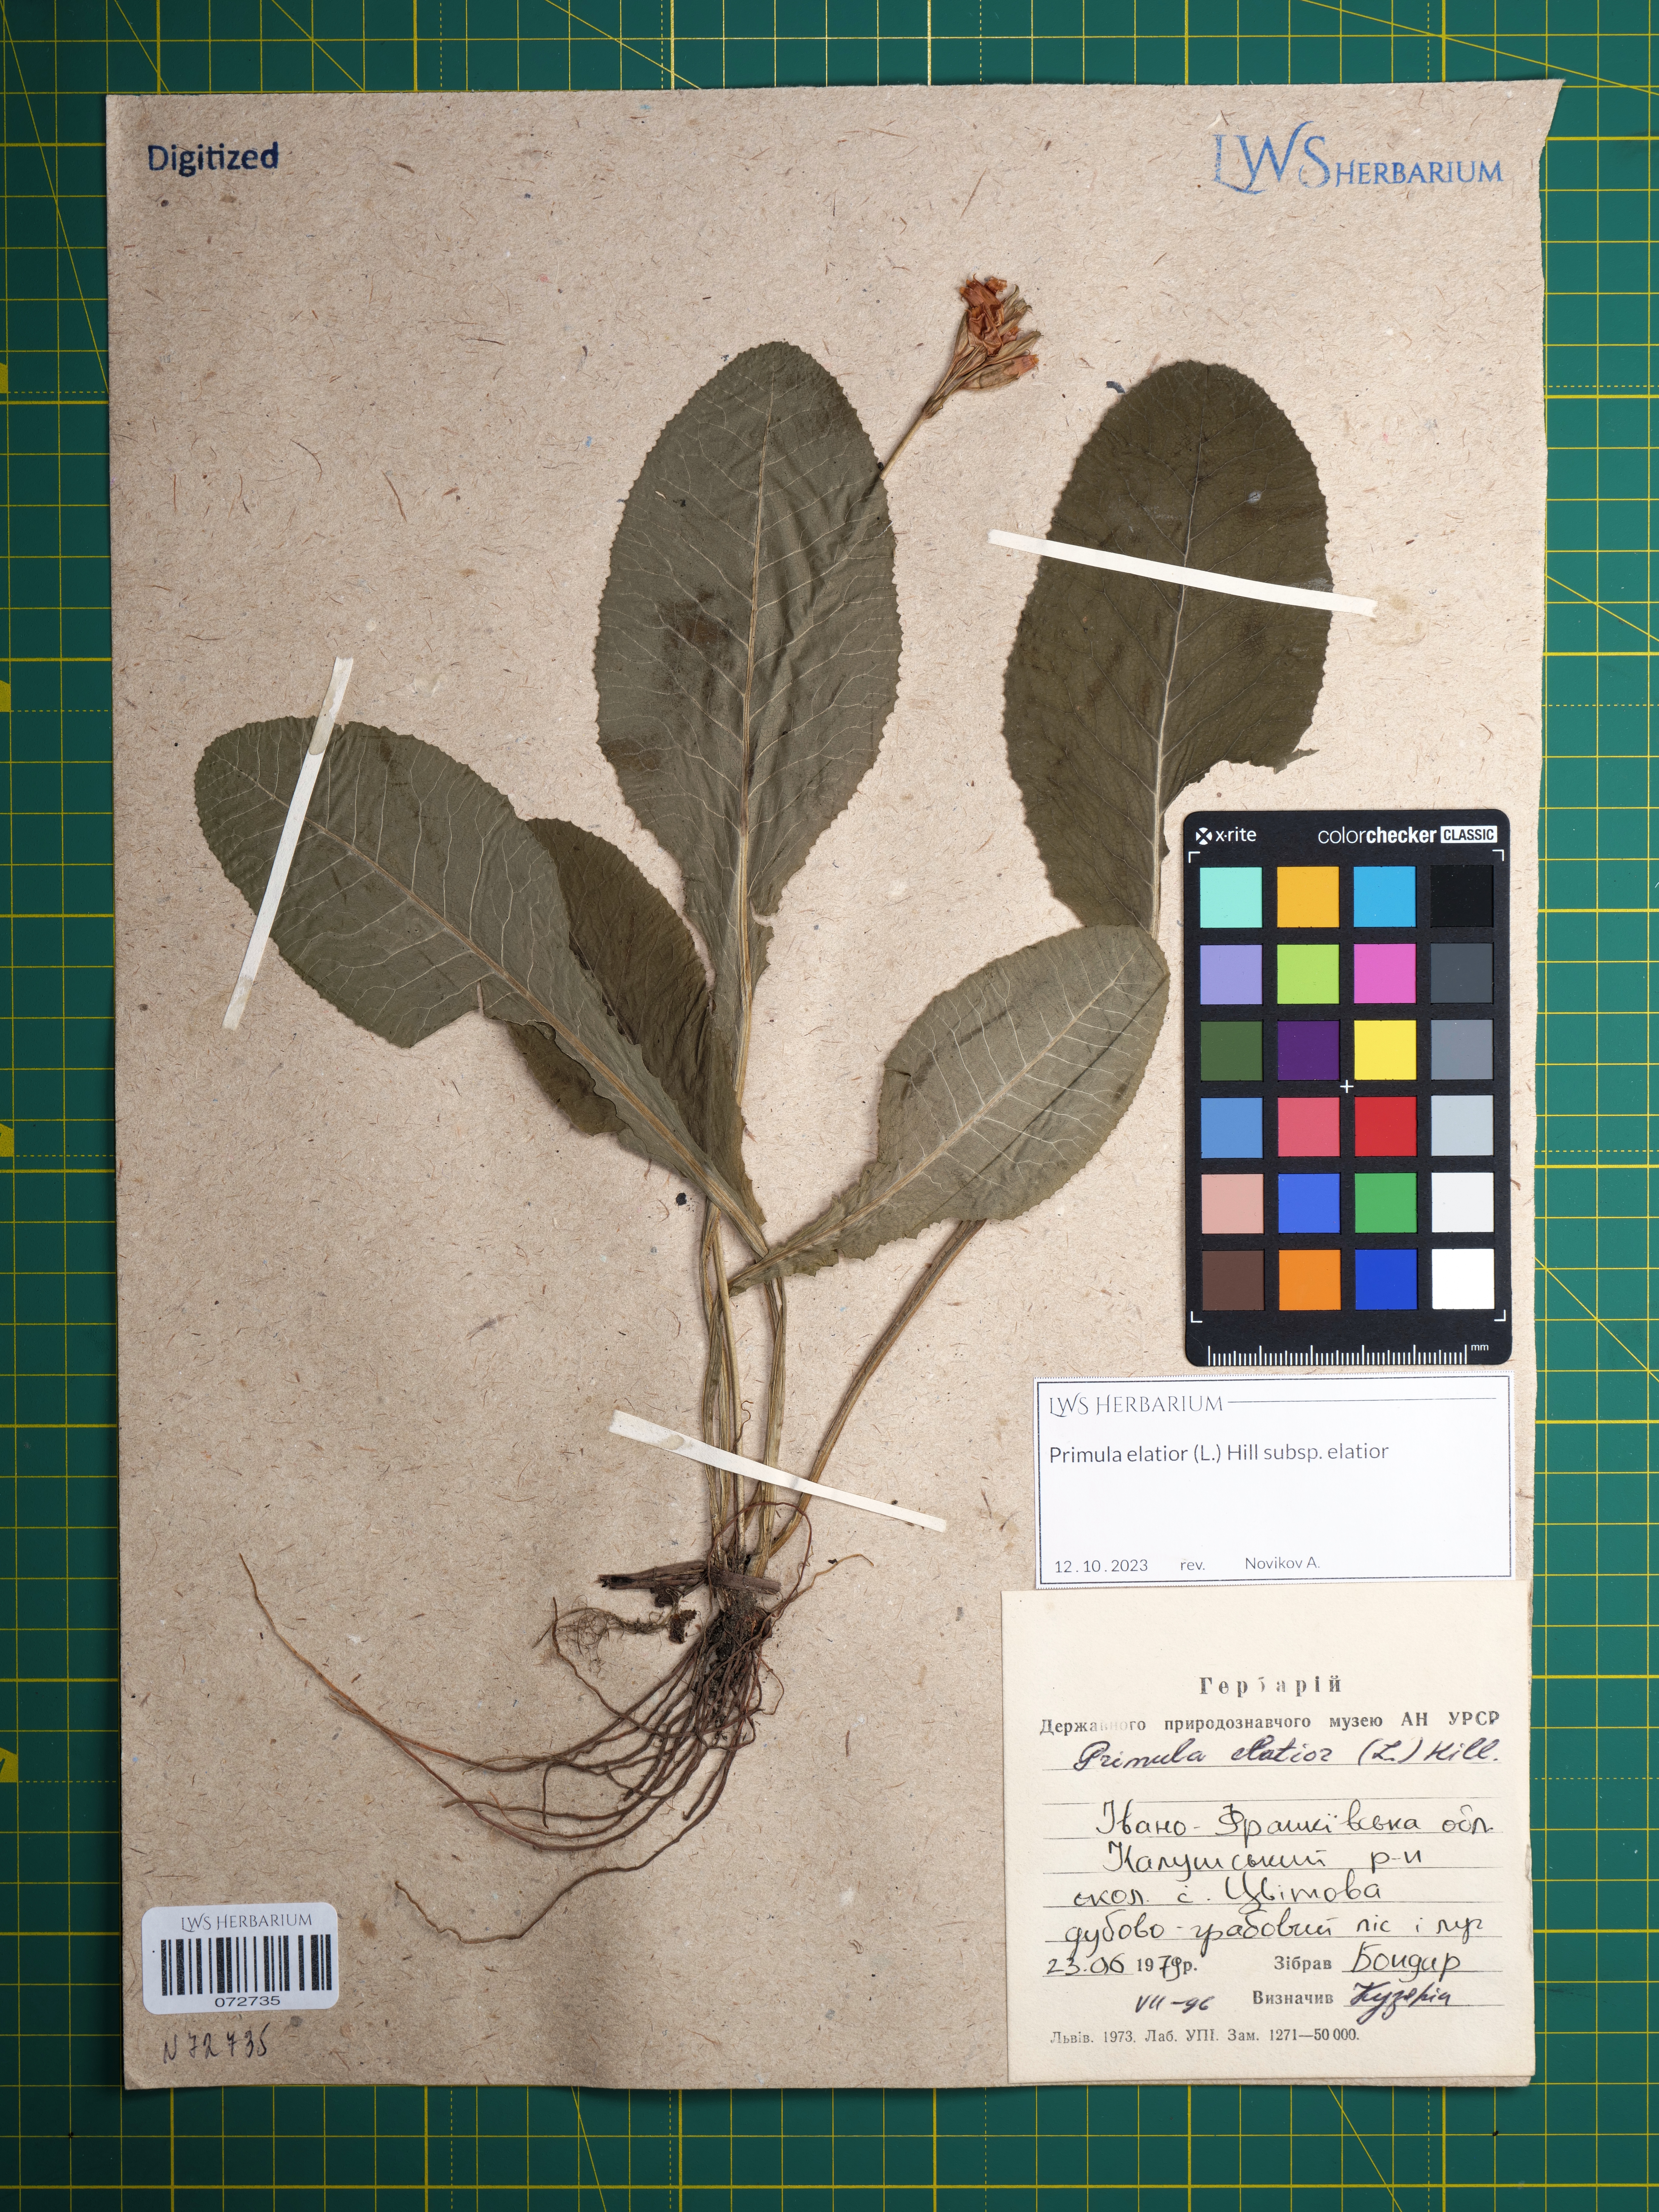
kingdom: Plantae
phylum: Tracheophyta
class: Magnoliopsida
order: Ericales
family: Primulaceae
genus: Primula
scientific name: Primula elatior
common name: Oxlip
